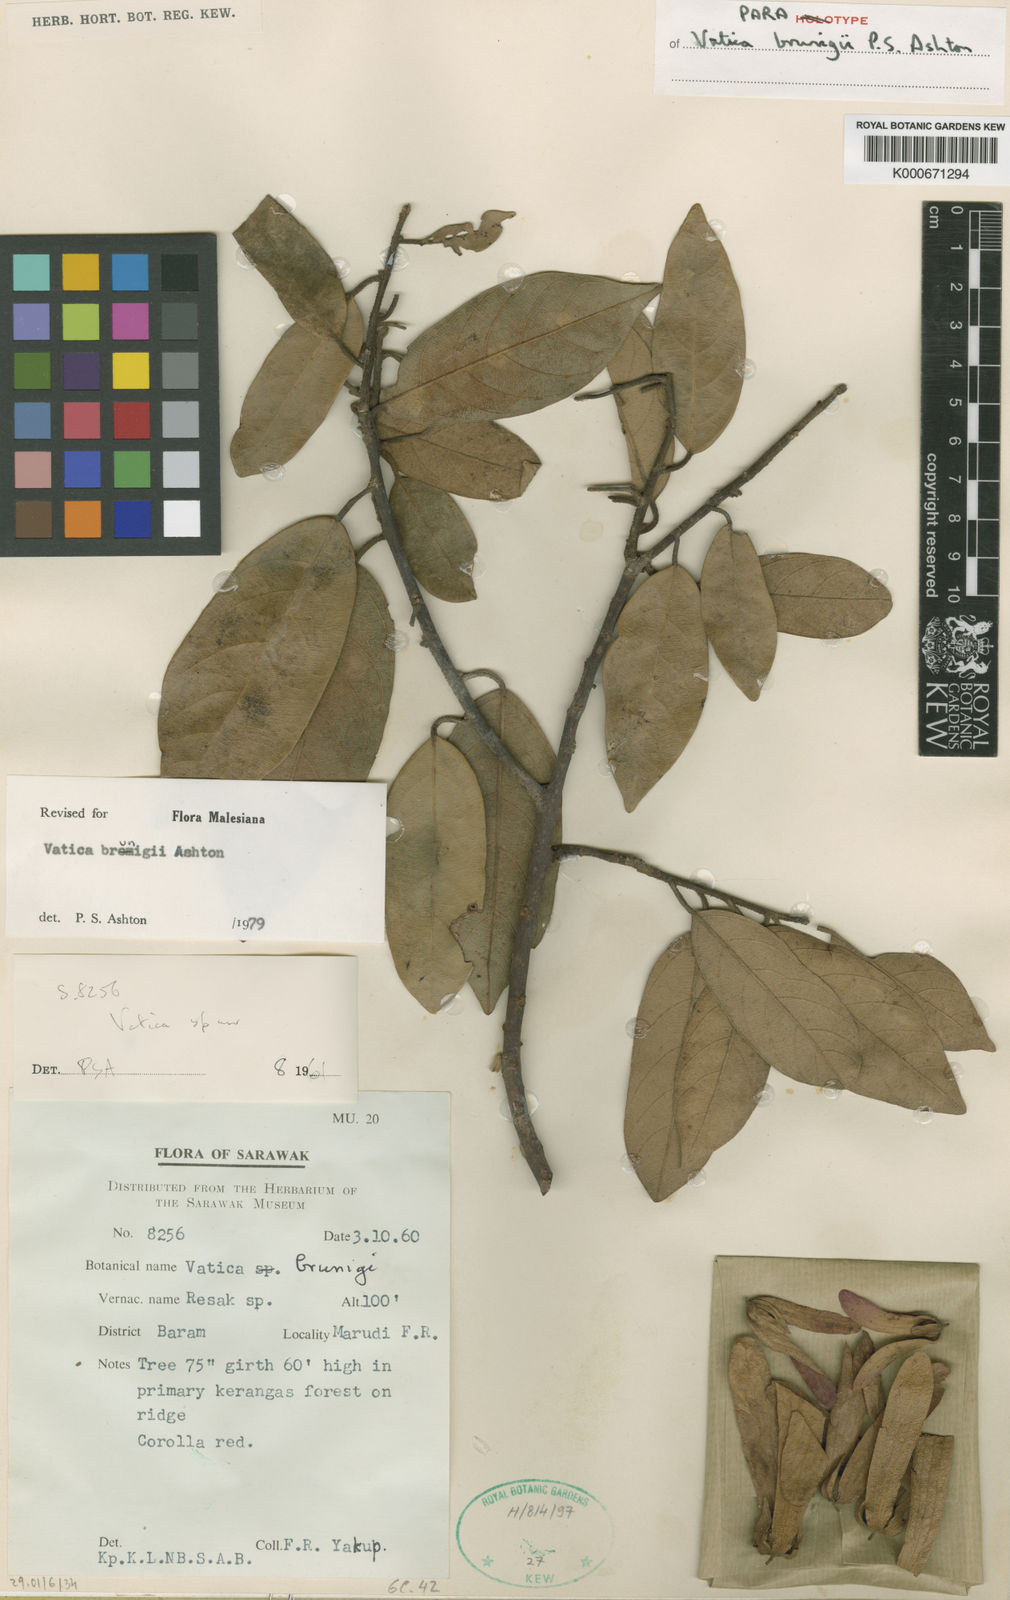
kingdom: Plantae
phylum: Tracheophyta
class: Magnoliopsida
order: Malvales
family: Dipterocarpaceae
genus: Vatica
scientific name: Vatica brunigii
